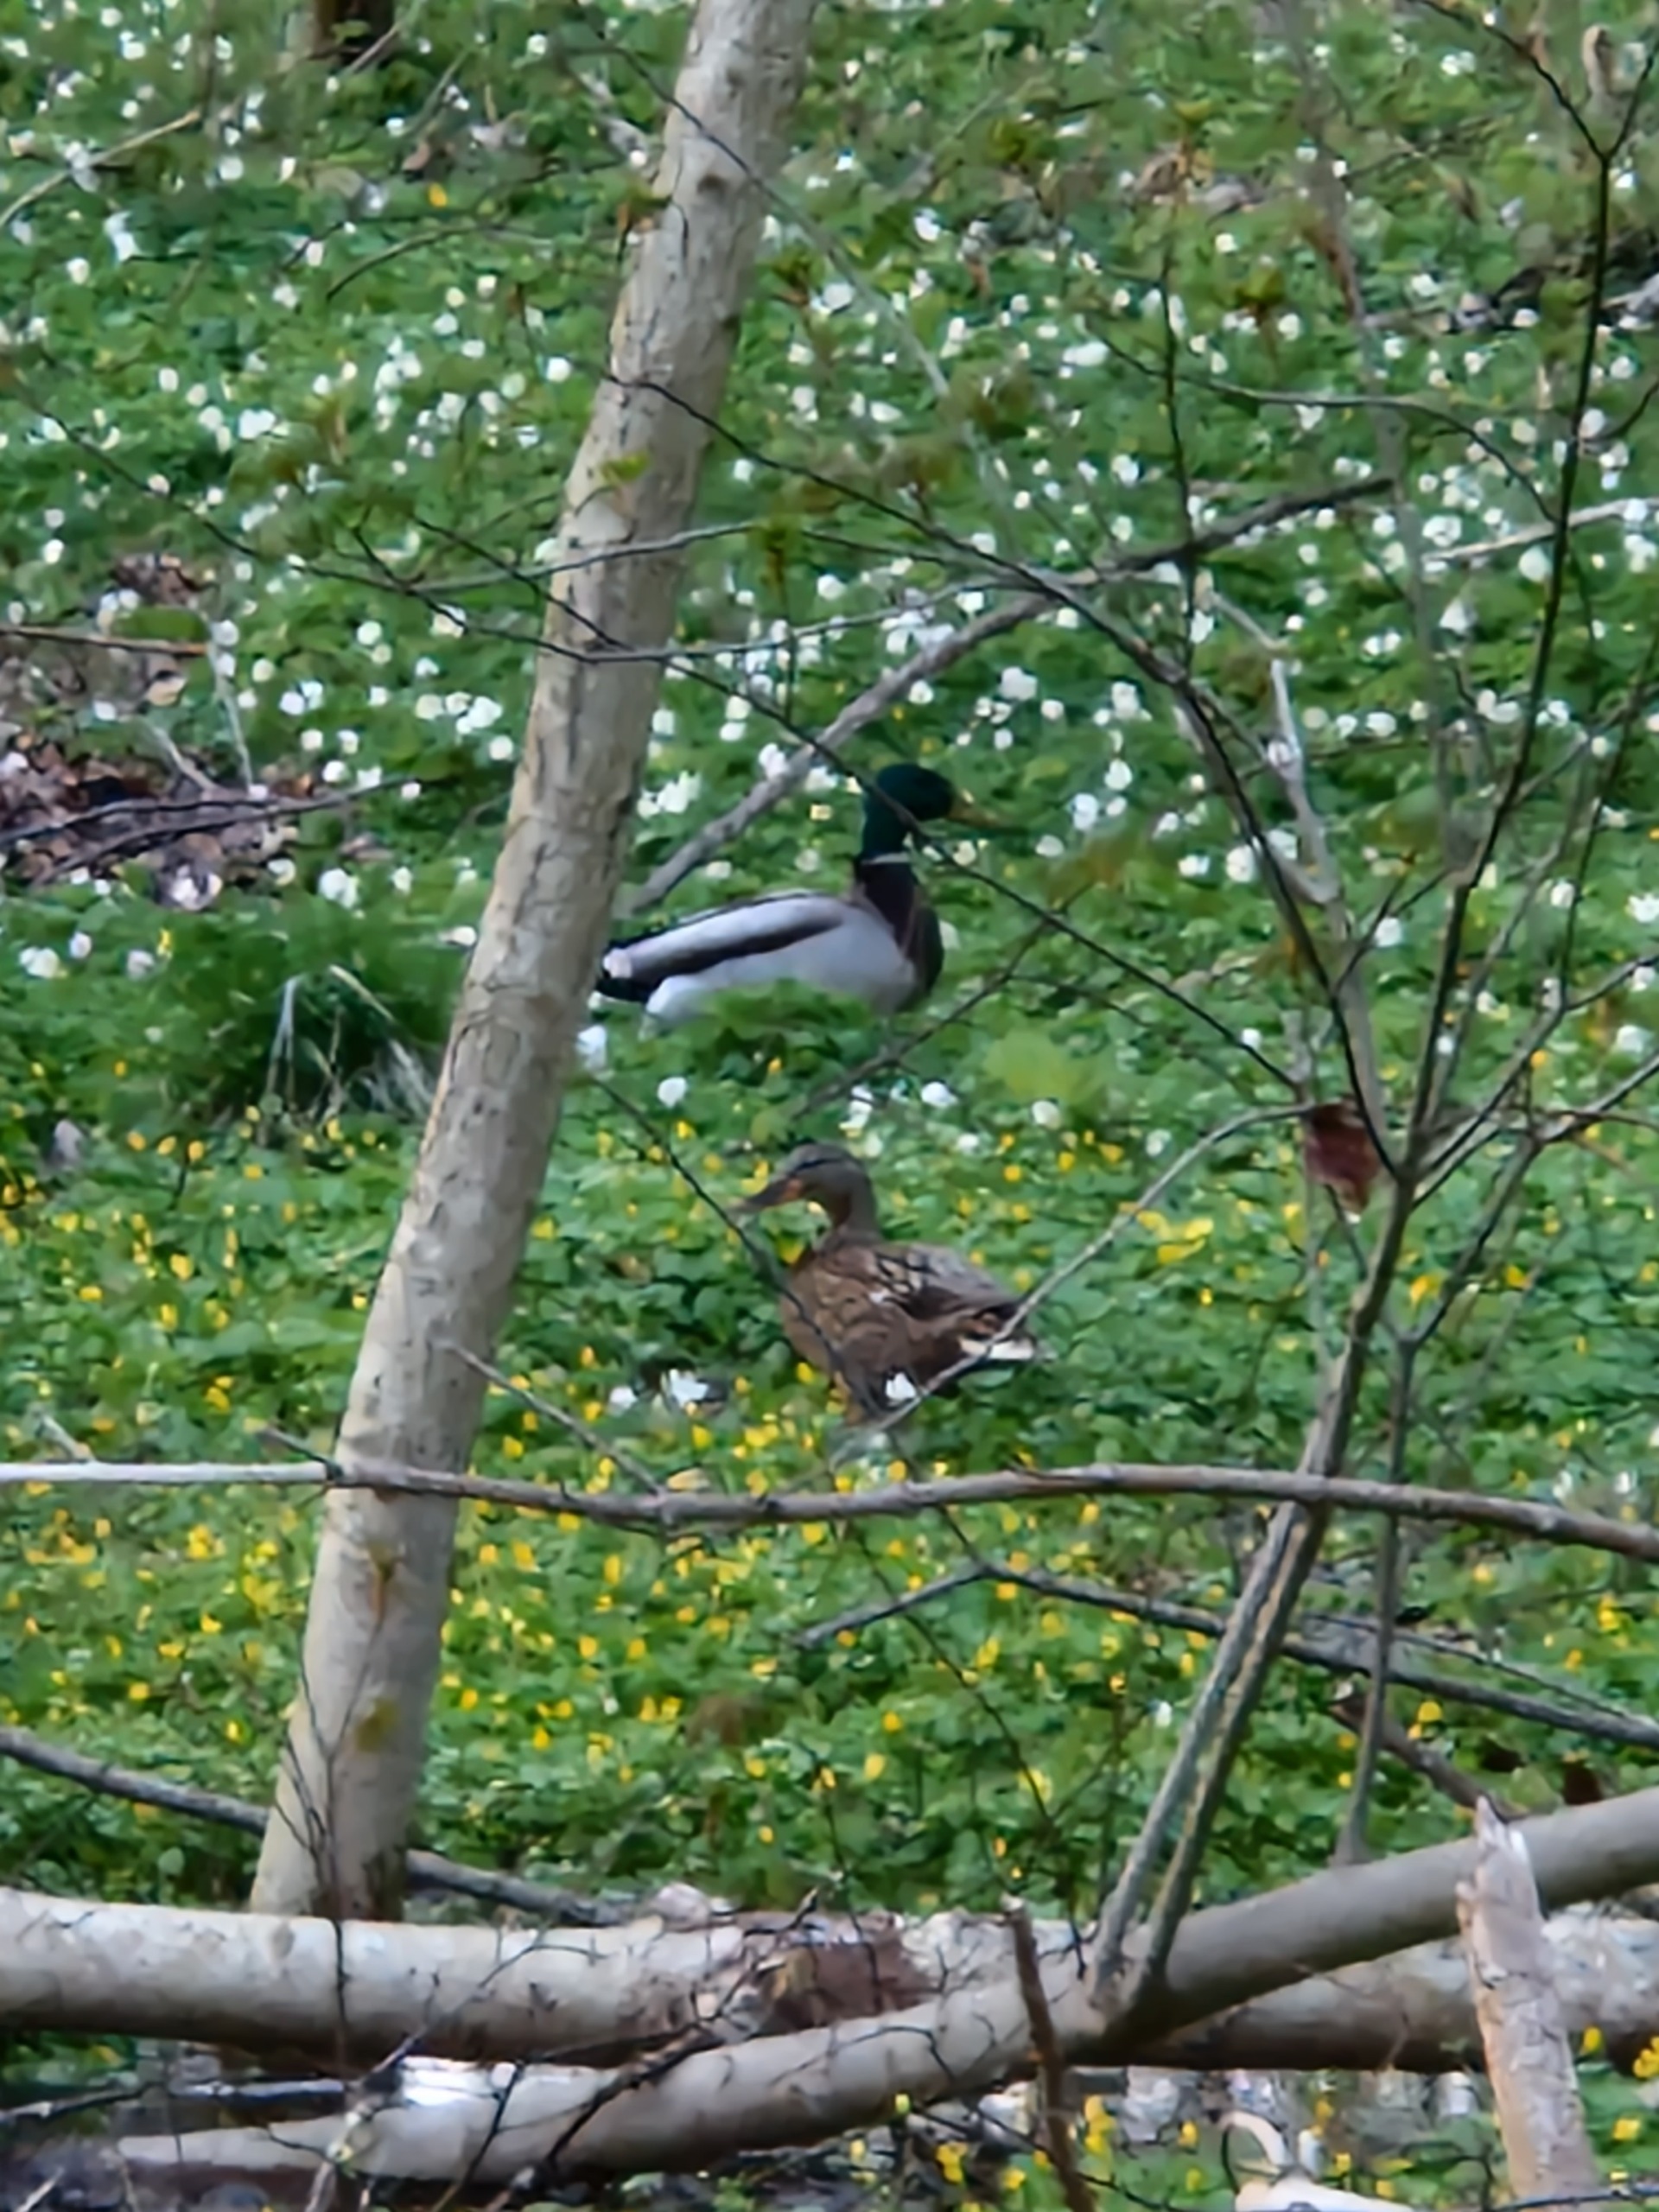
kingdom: Animalia
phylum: Chordata
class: Aves
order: Anseriformes
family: Anatidae
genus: Anas
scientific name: Anas platyrhynchos
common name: Gråand
